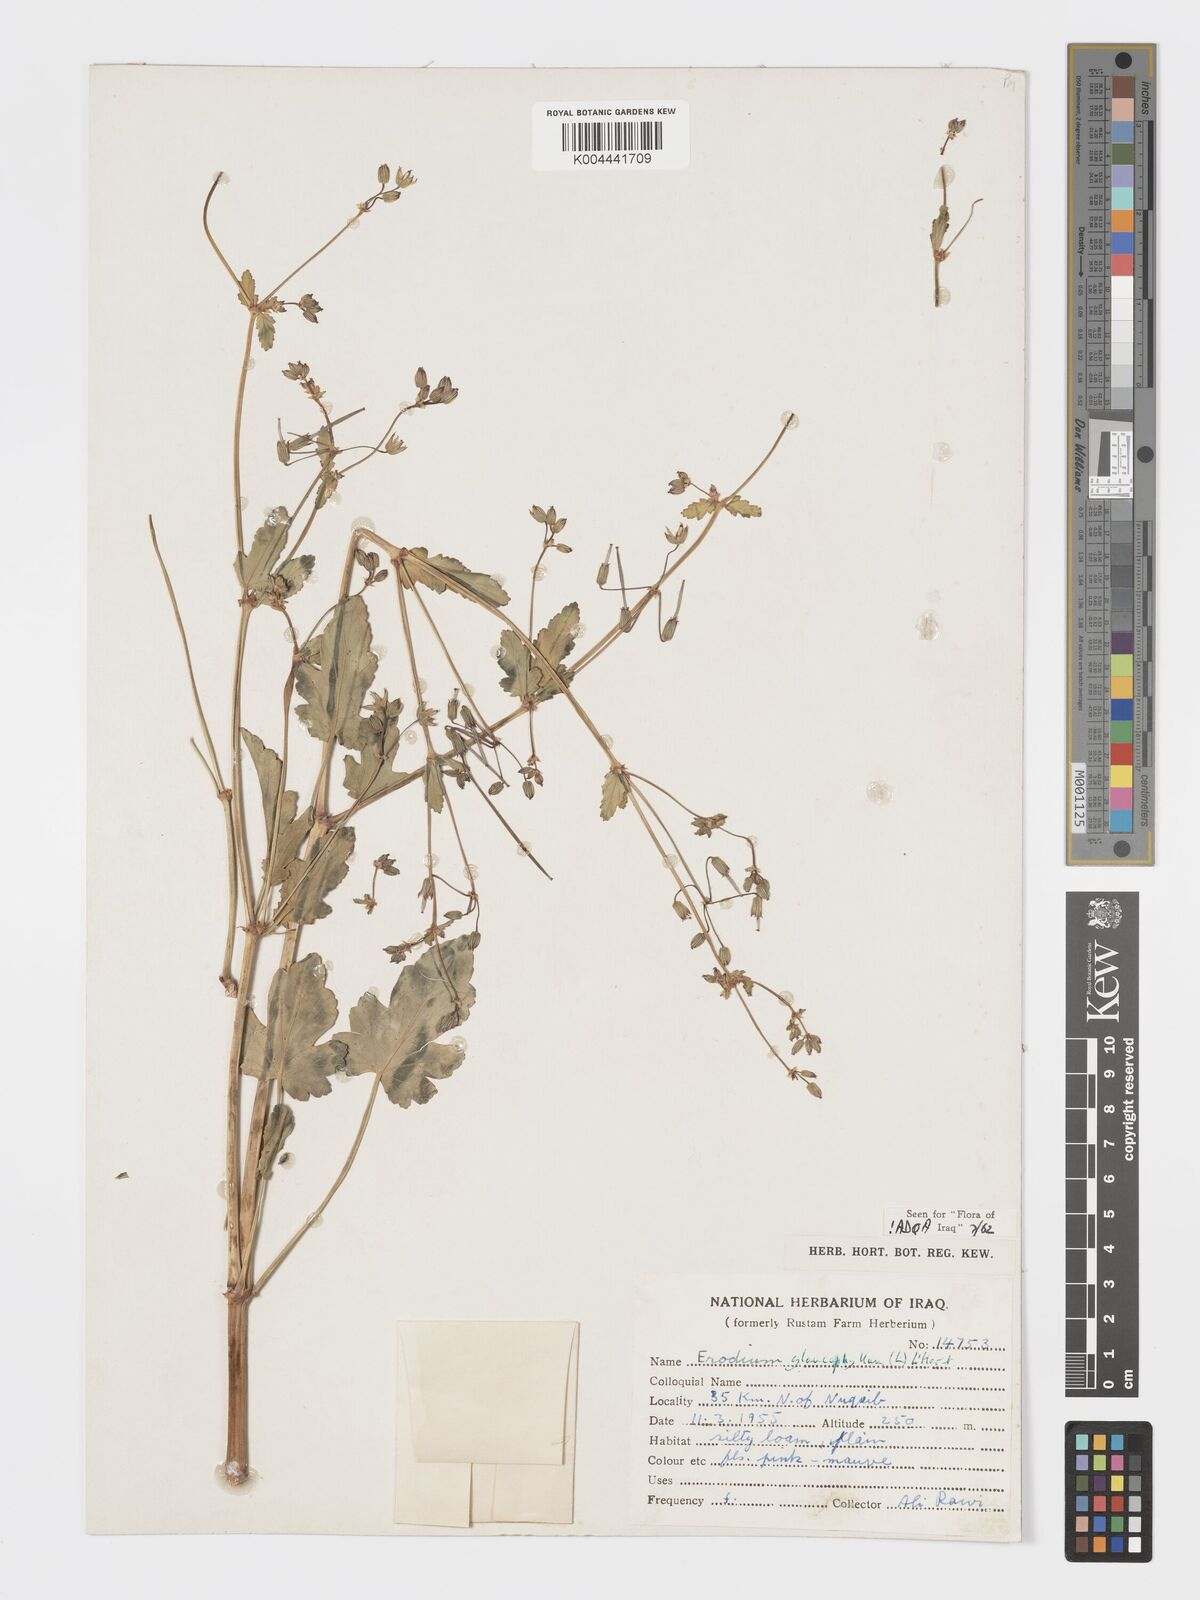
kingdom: Plantae
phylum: Tracheophyta
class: Magnoliopsida
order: Geraniales
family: Geraniaceae
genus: Erodium
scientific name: Erodium glaucophyllum
